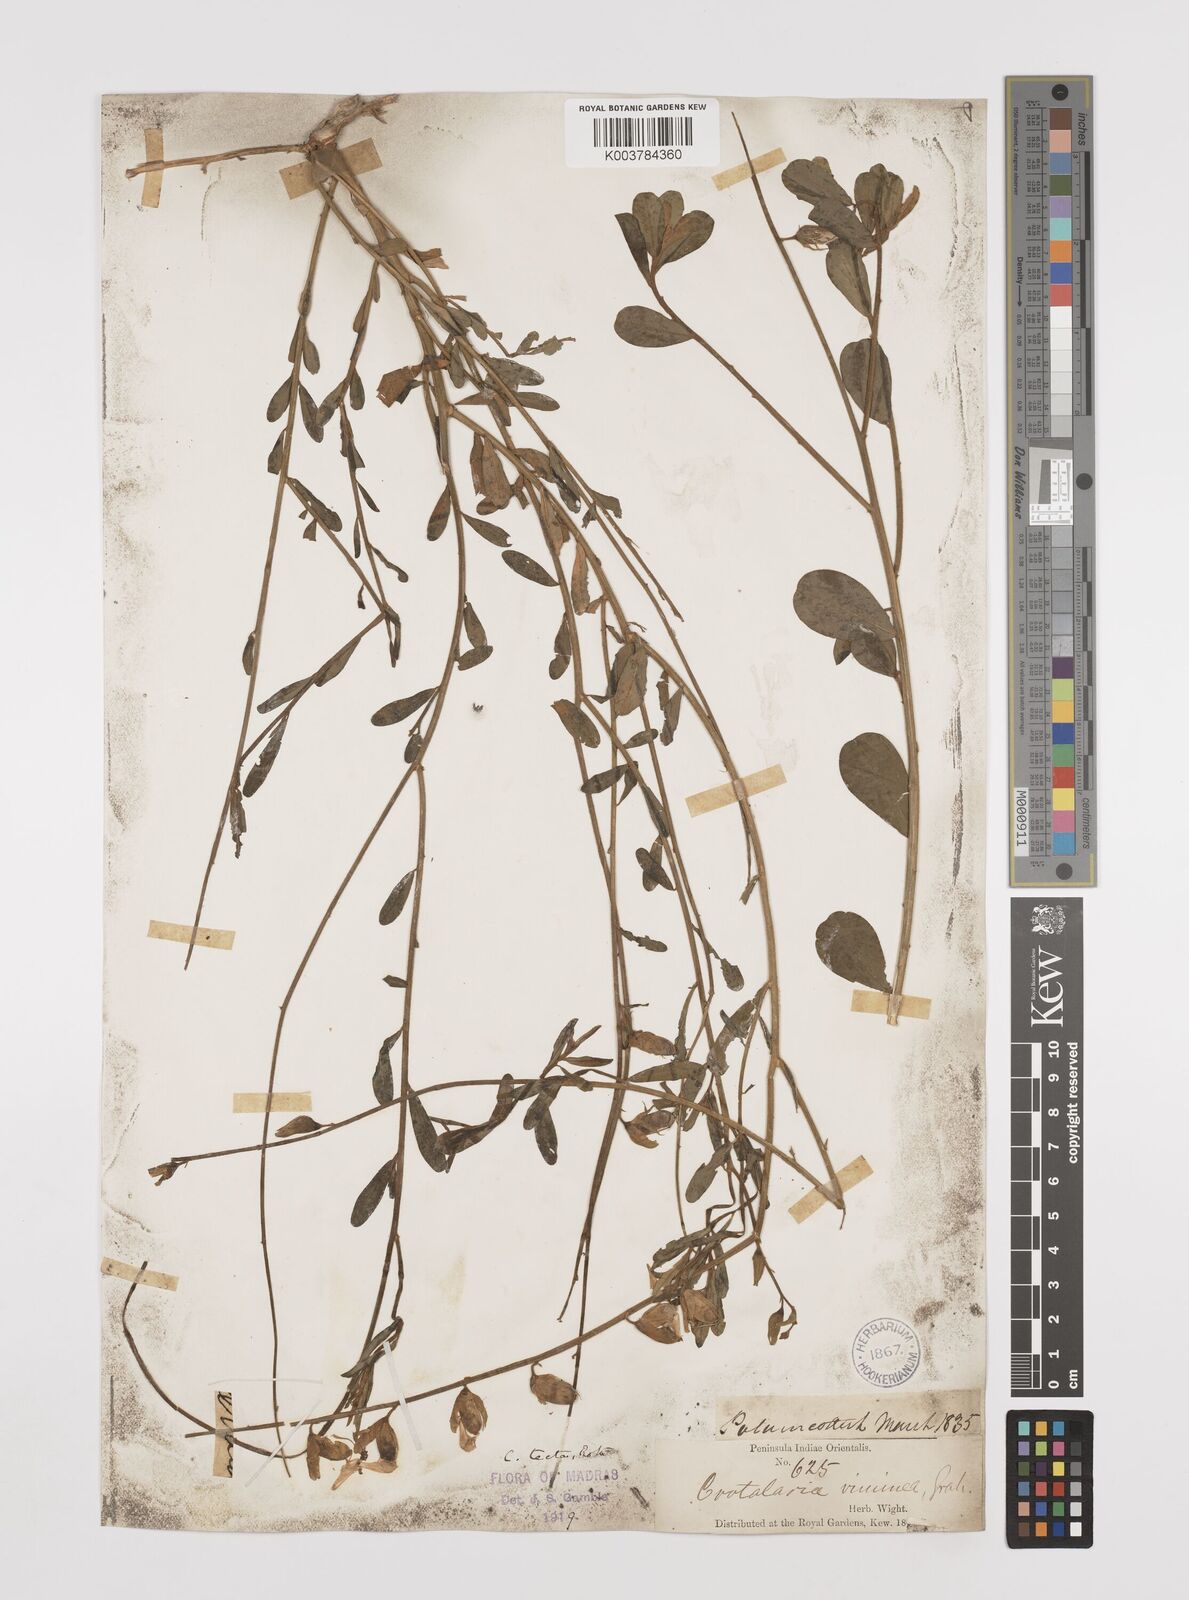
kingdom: Plantae
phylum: Tracheophyta
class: Magnoliopsida
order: Fabales
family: Fabaceae
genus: Crotalaria
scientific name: Crotalaria linifolia
